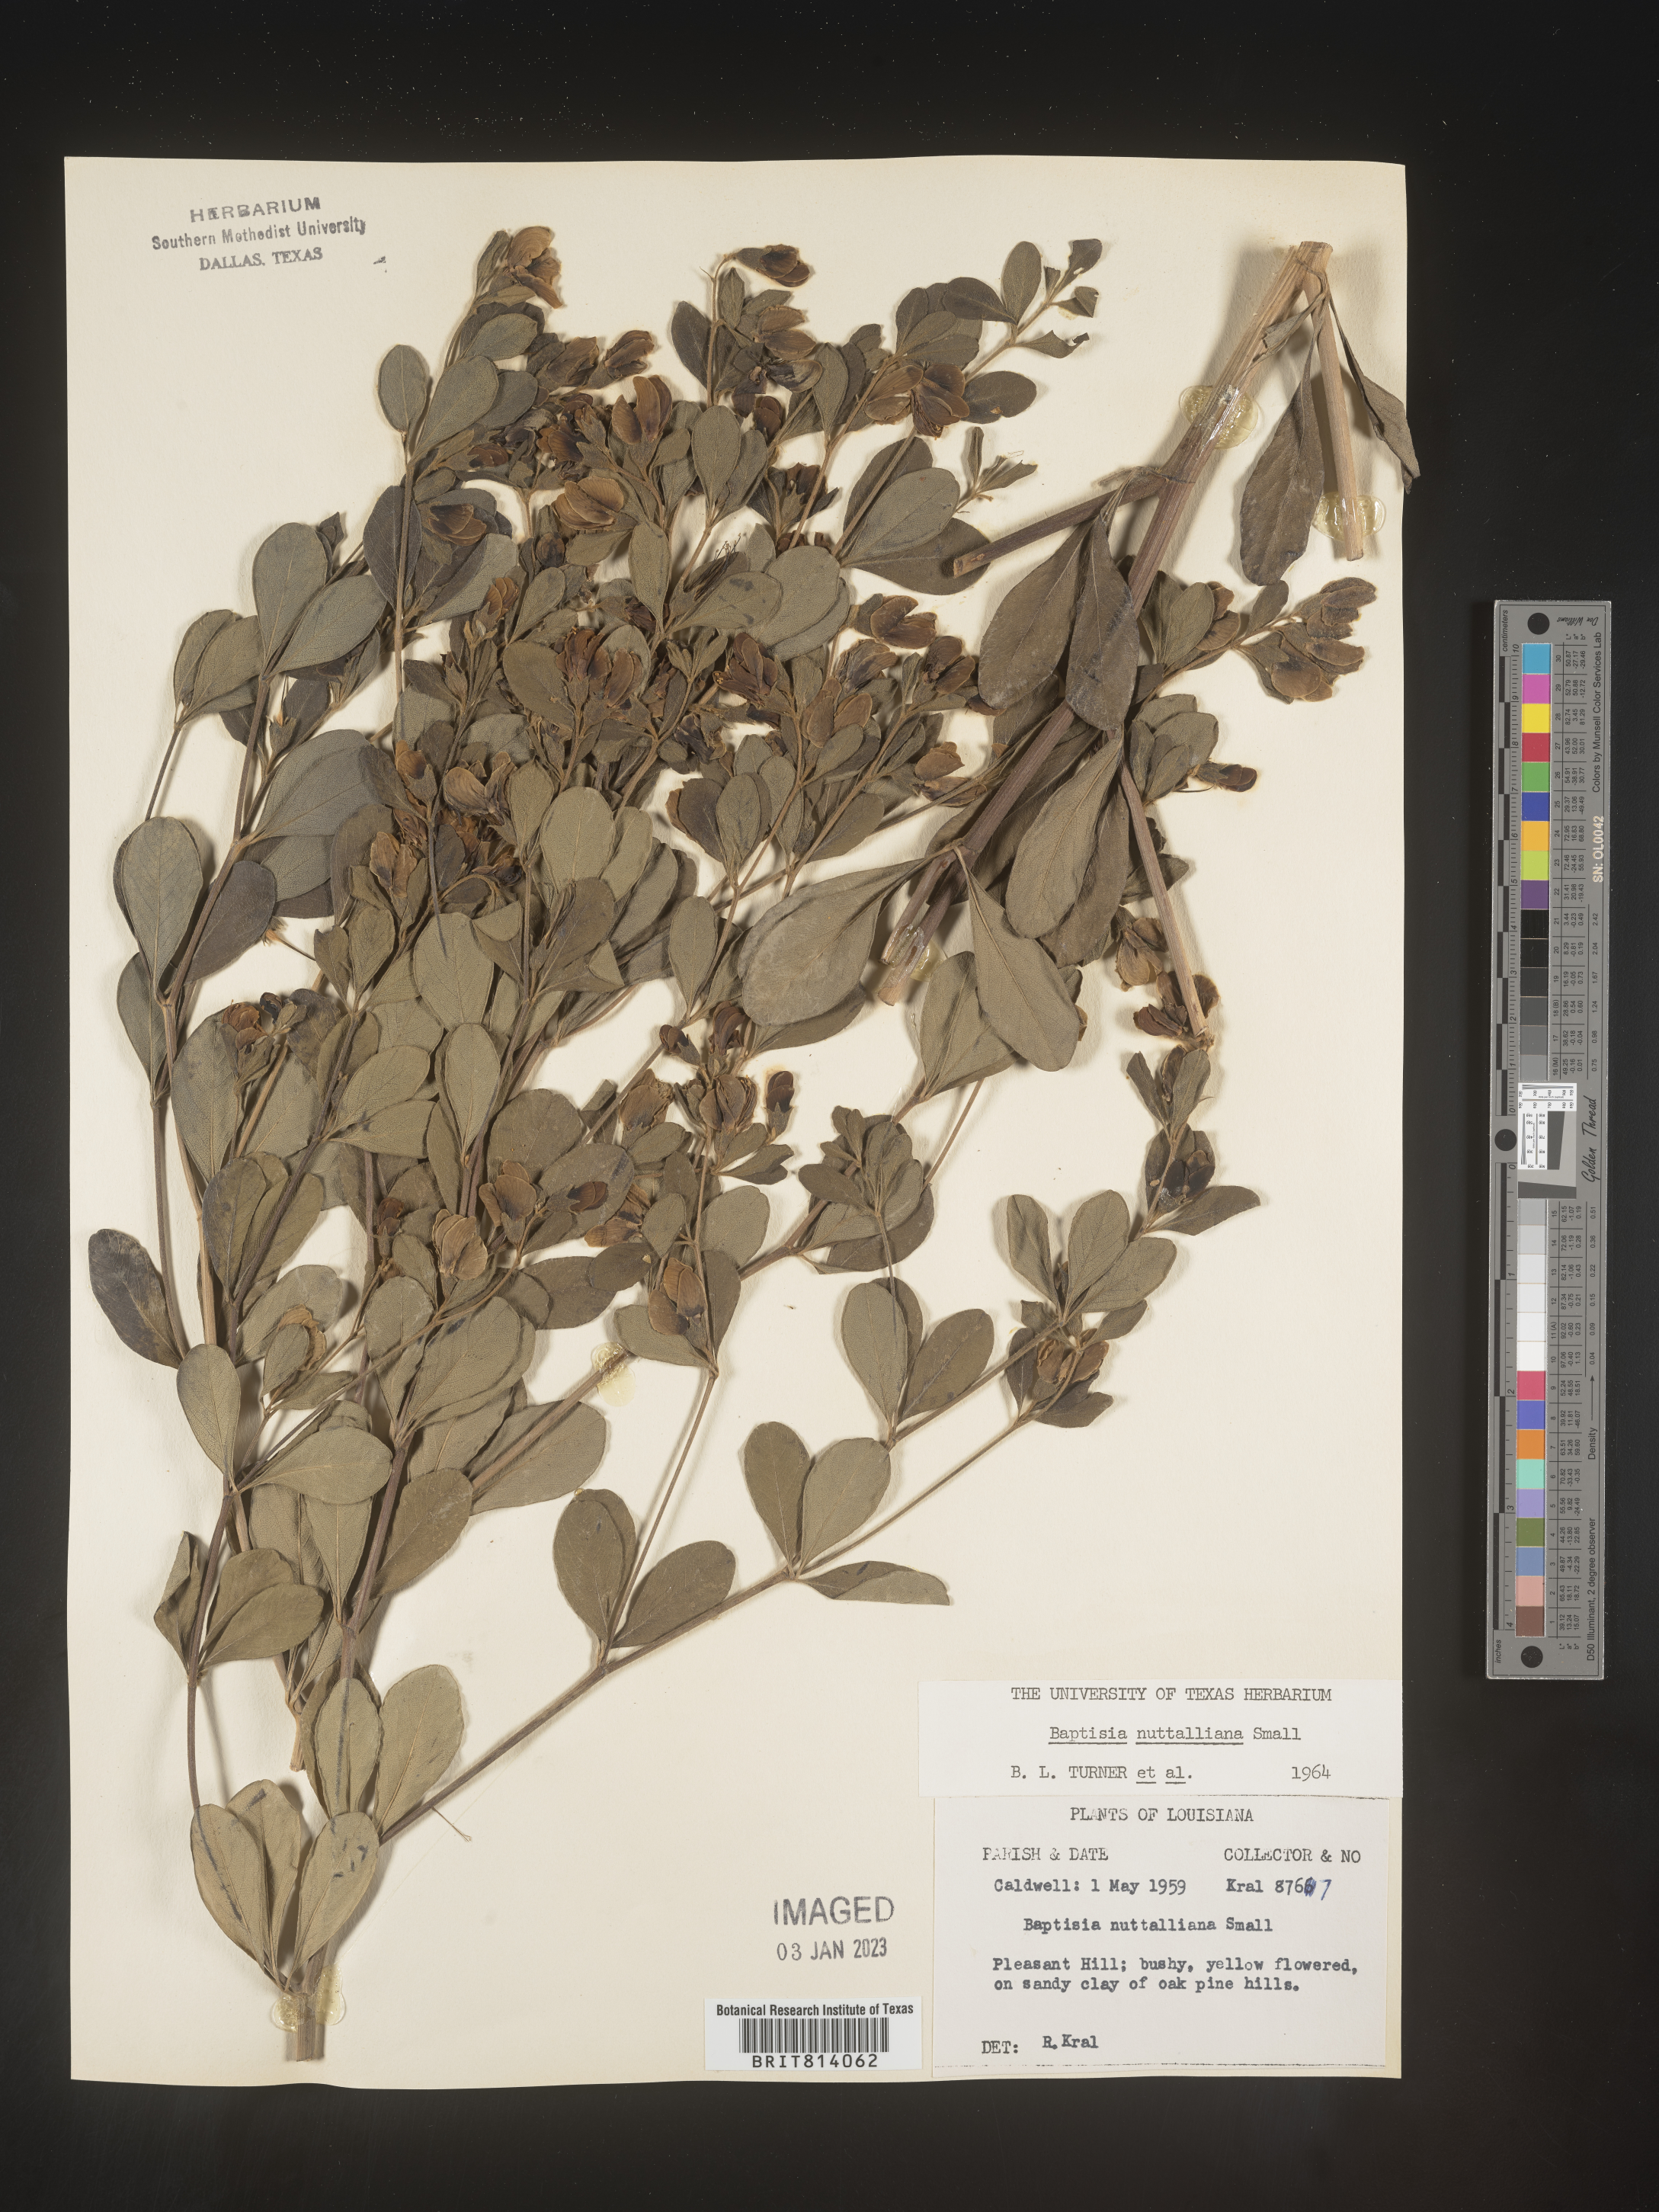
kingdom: Plantae
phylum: Tracheophyta
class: Magnoliopsida
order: Fabales
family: Fabaceae
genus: Baptisia
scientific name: Baptisia nuttalliana
